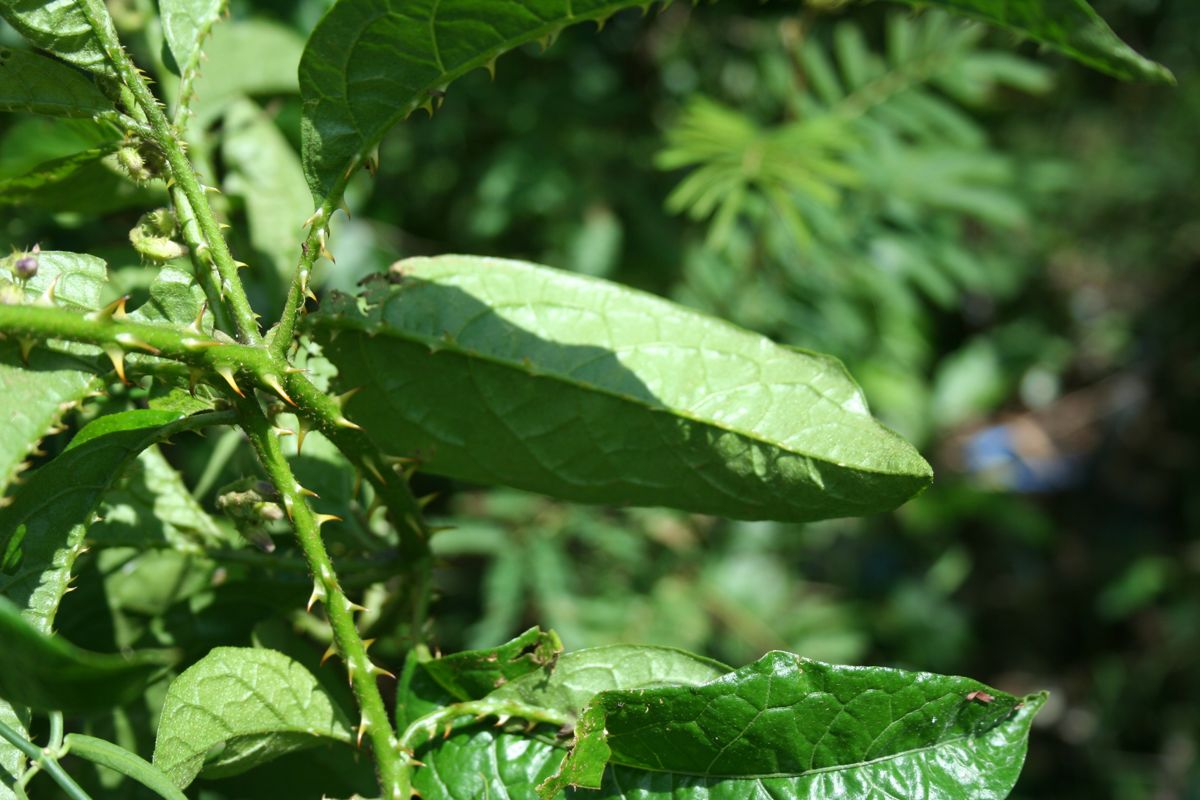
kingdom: Plantae
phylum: Tracheophyta
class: Magnoliopsida
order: Solanales
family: Solanaceae
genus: Solanum
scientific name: Solanum volubile
